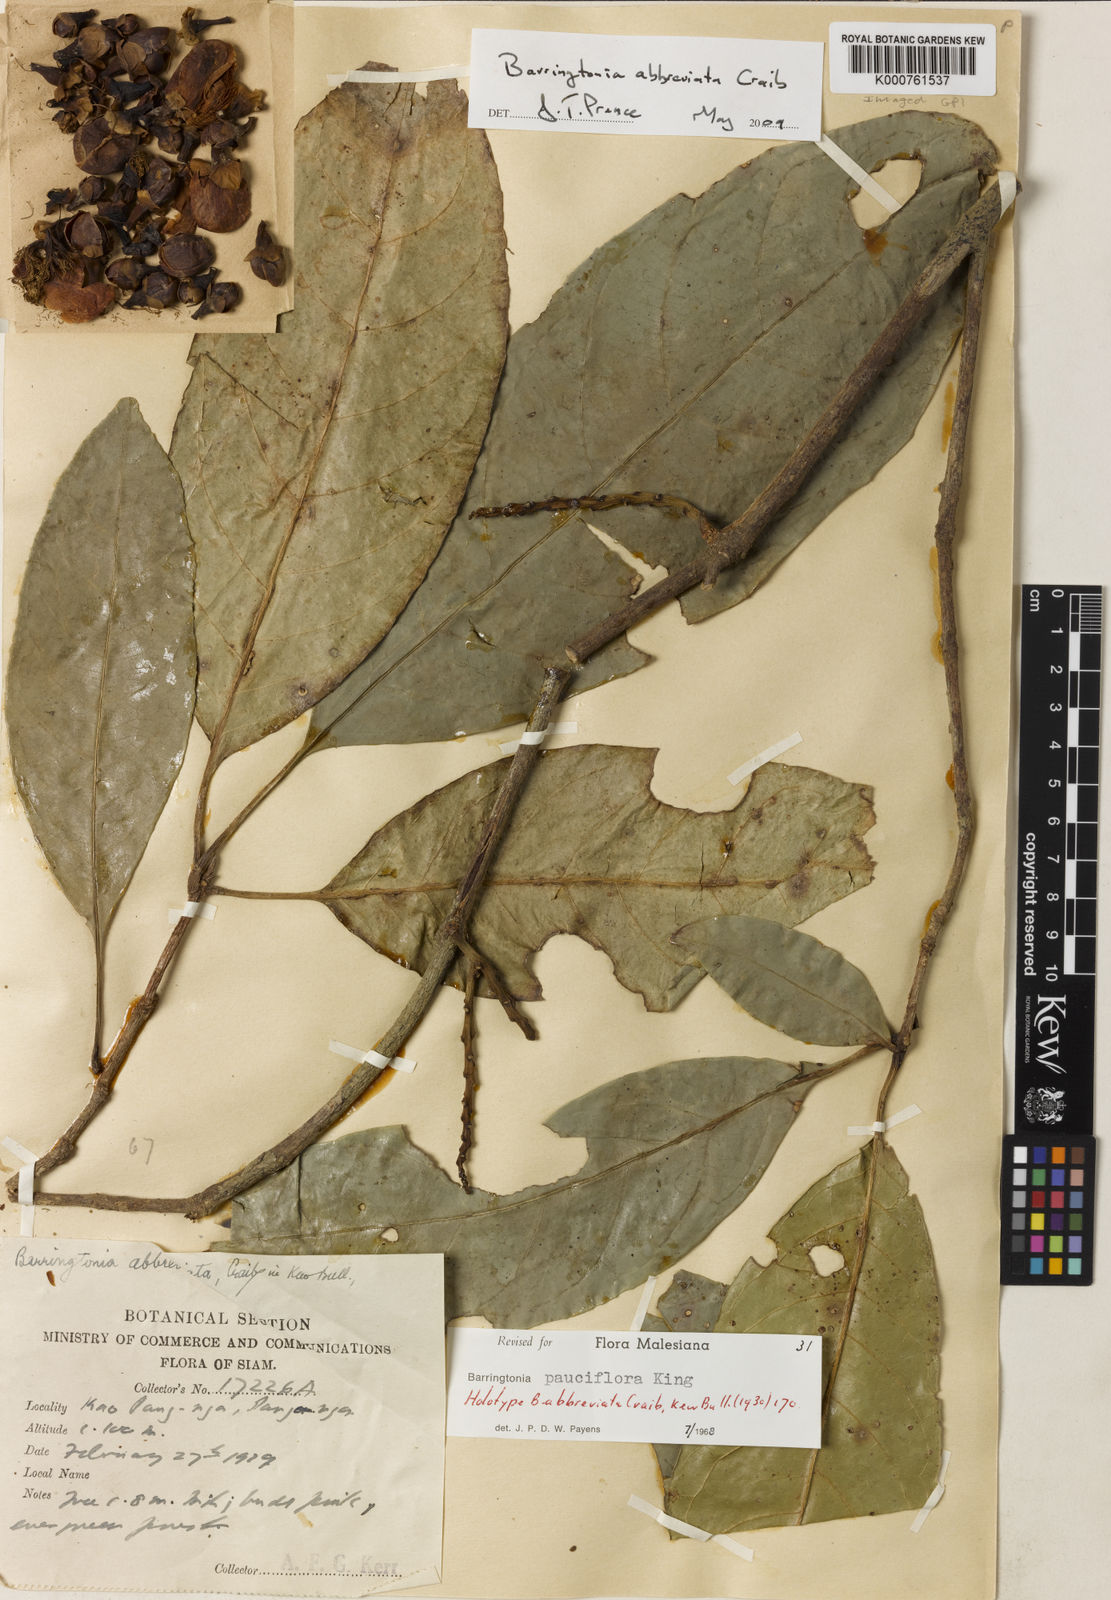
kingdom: Plantae
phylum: Tracheophyta
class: Magnoliopsida
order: Ericales
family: Lecythidaceae
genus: Barringtonia
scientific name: Barringtonia pauciflora
